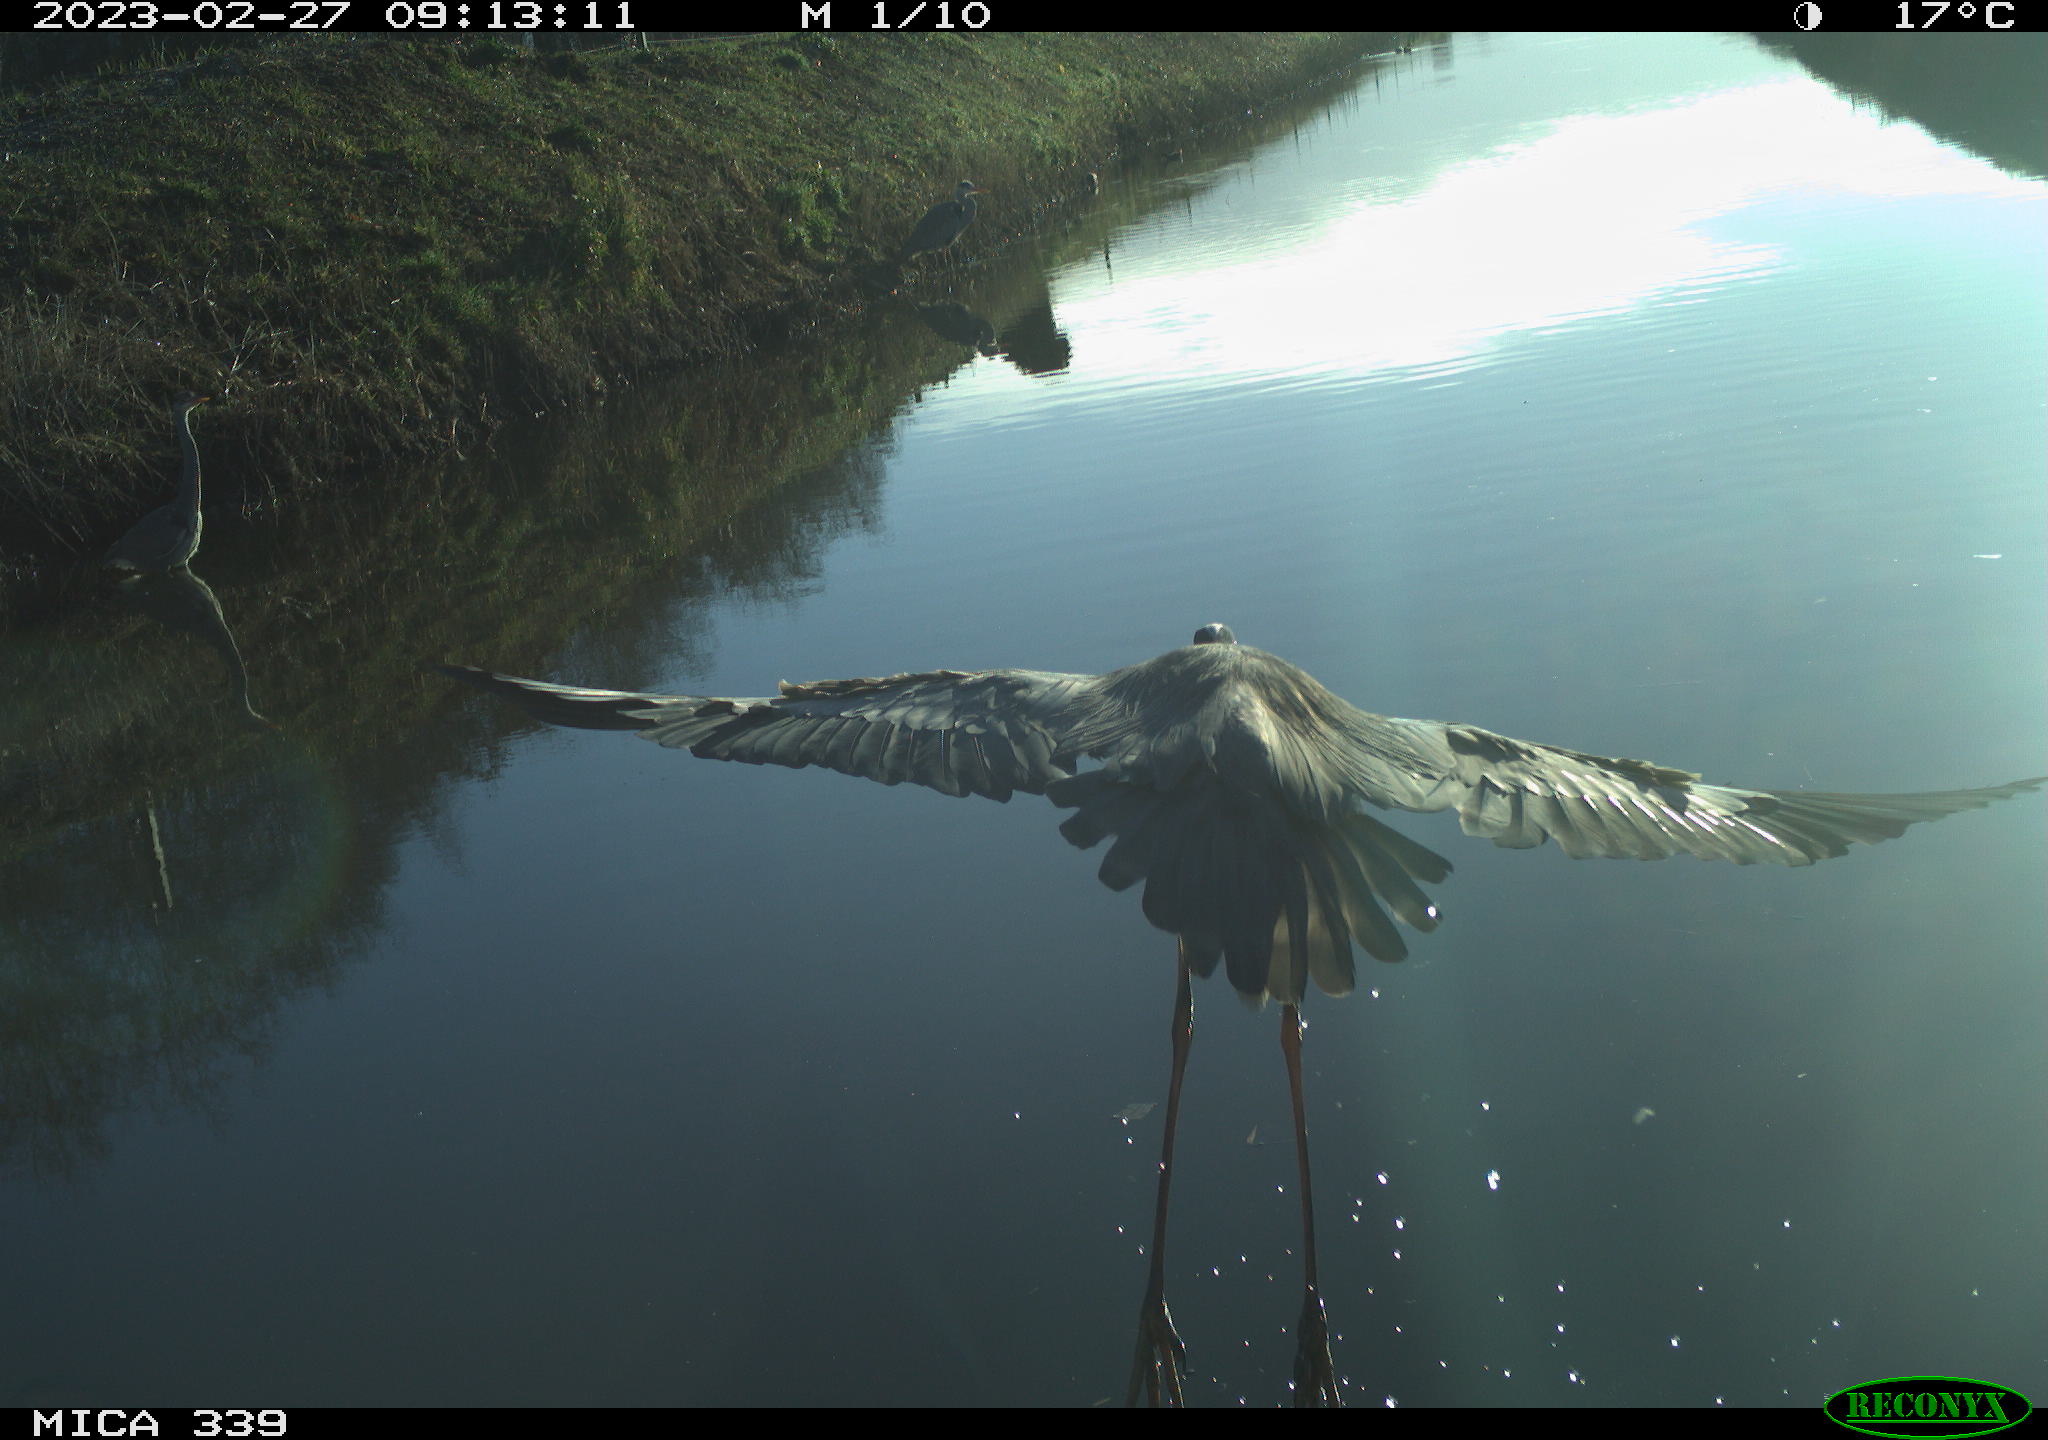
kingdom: Animalia
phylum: Chordata
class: Aves
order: Pelecaniformes
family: Ardeidae
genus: Ardea
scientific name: Ardea cinerea
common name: Grey heron
